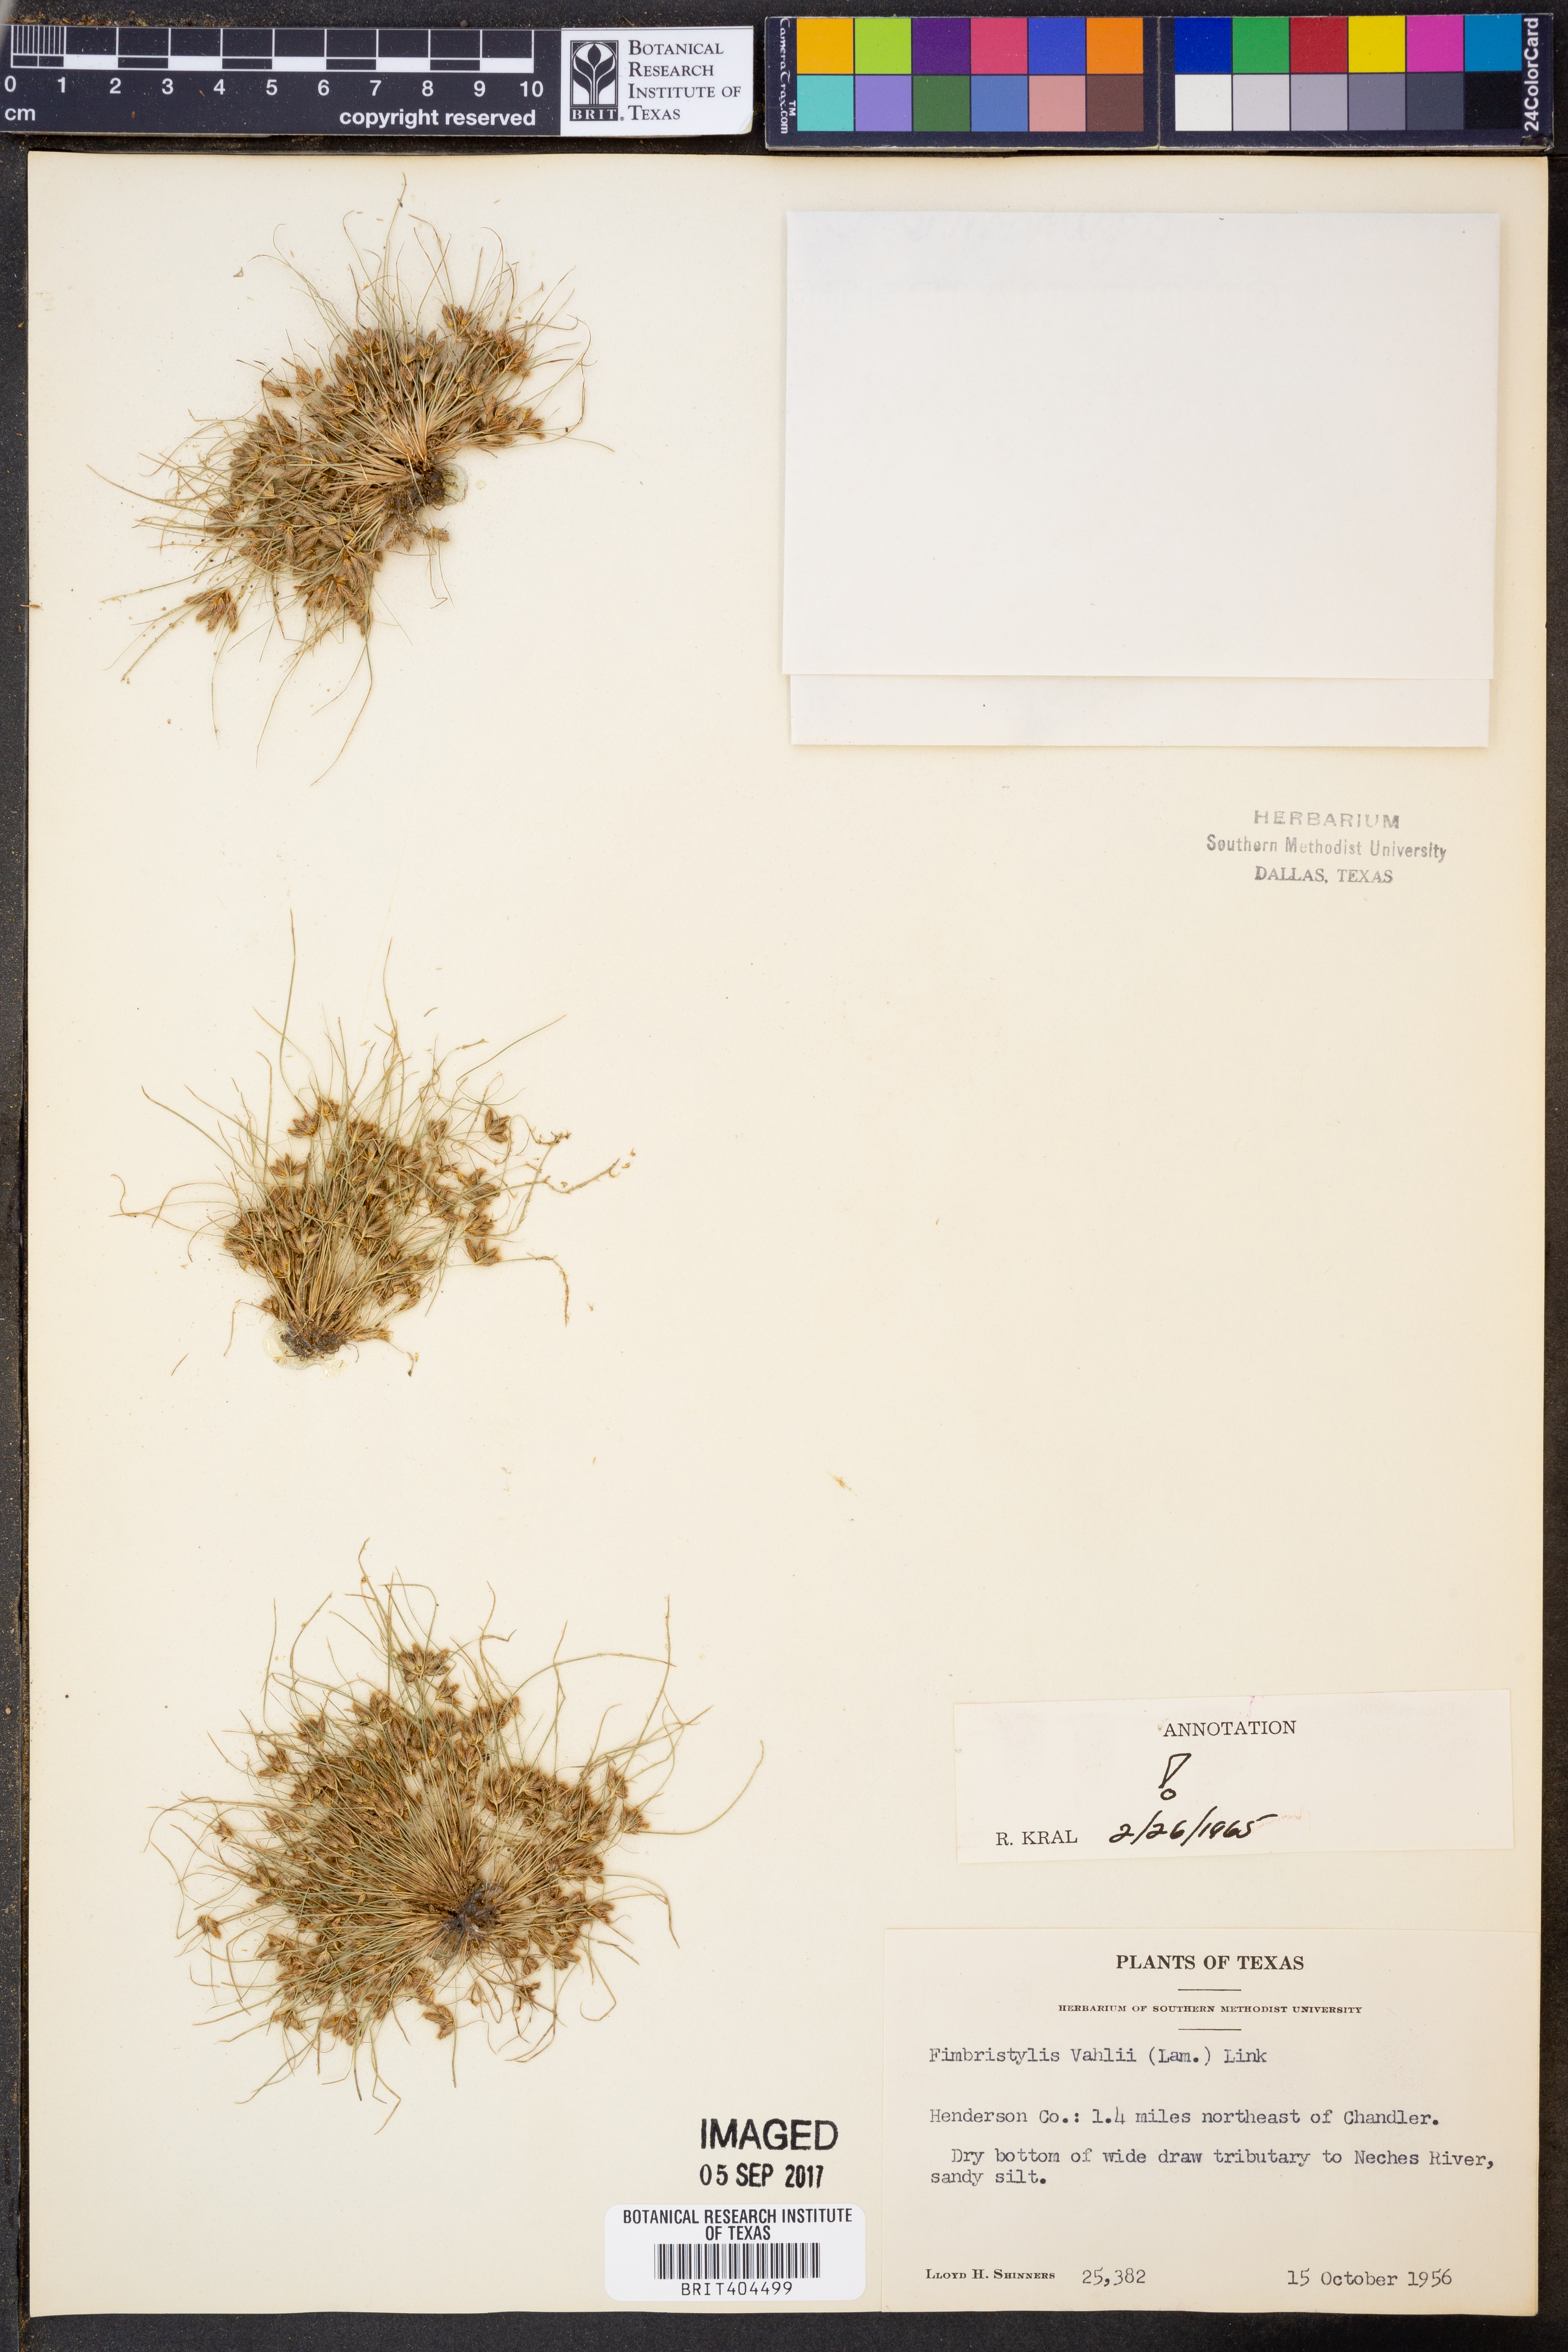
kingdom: Plantae
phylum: Tracheophyta
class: Liliopsida
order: Poales
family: Cyperaceae
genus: Fimbristylis
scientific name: Fimbristylis vahlii
